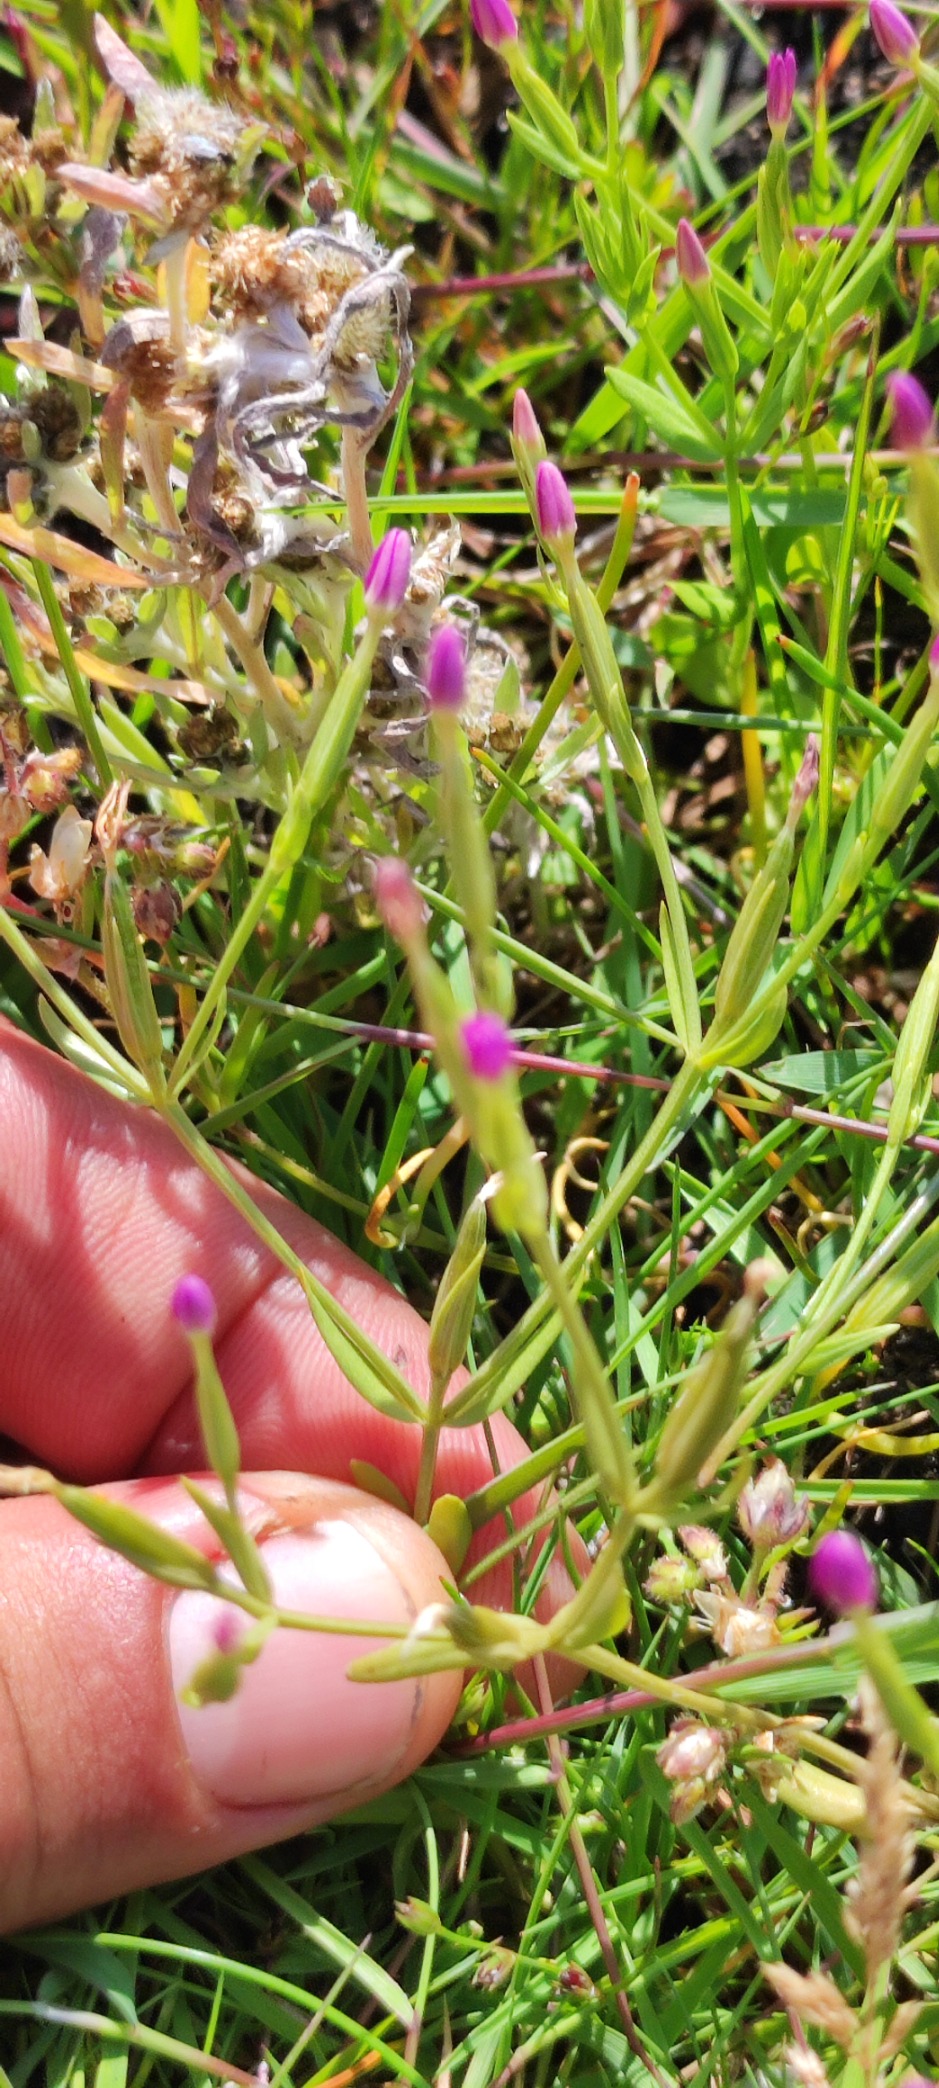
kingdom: Plantae
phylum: Tracheophyta
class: Magnoliopsida
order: Gentianales
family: Gentianaceae
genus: Centaurium
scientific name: Centaurium pulchellum
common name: Liden tusindgylden
